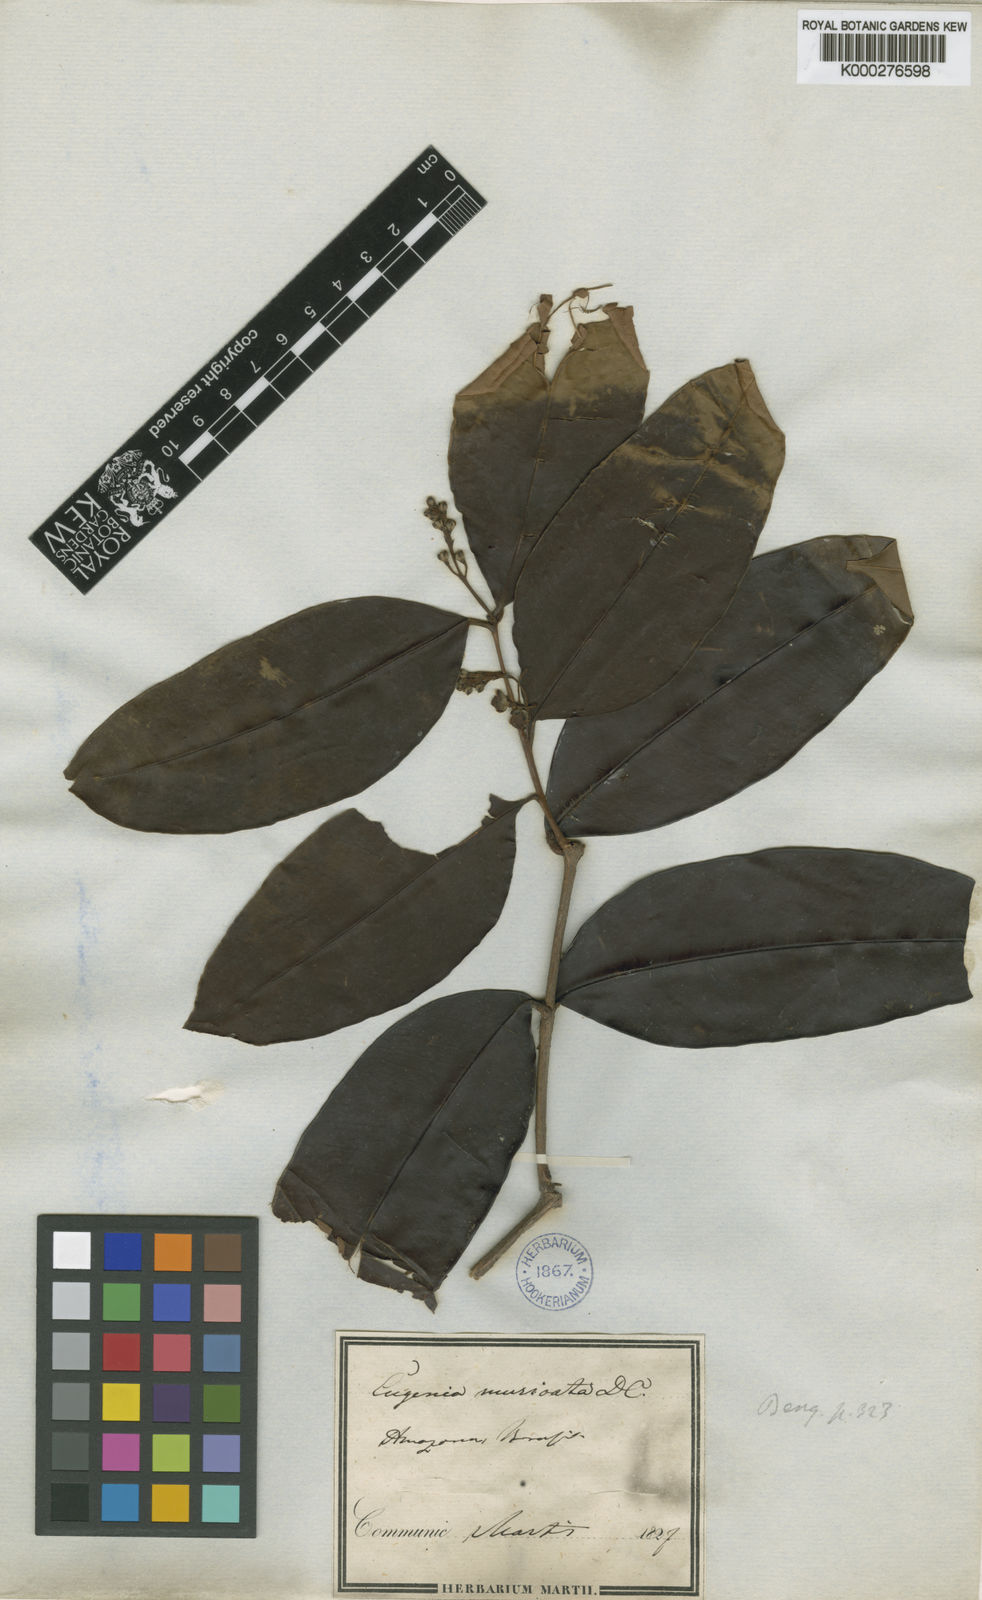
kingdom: Plantae
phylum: Tracheophyta
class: Magnoliopsida
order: Myrtales
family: Myrtaceae
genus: Eugenia
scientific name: Eugenia muricata
